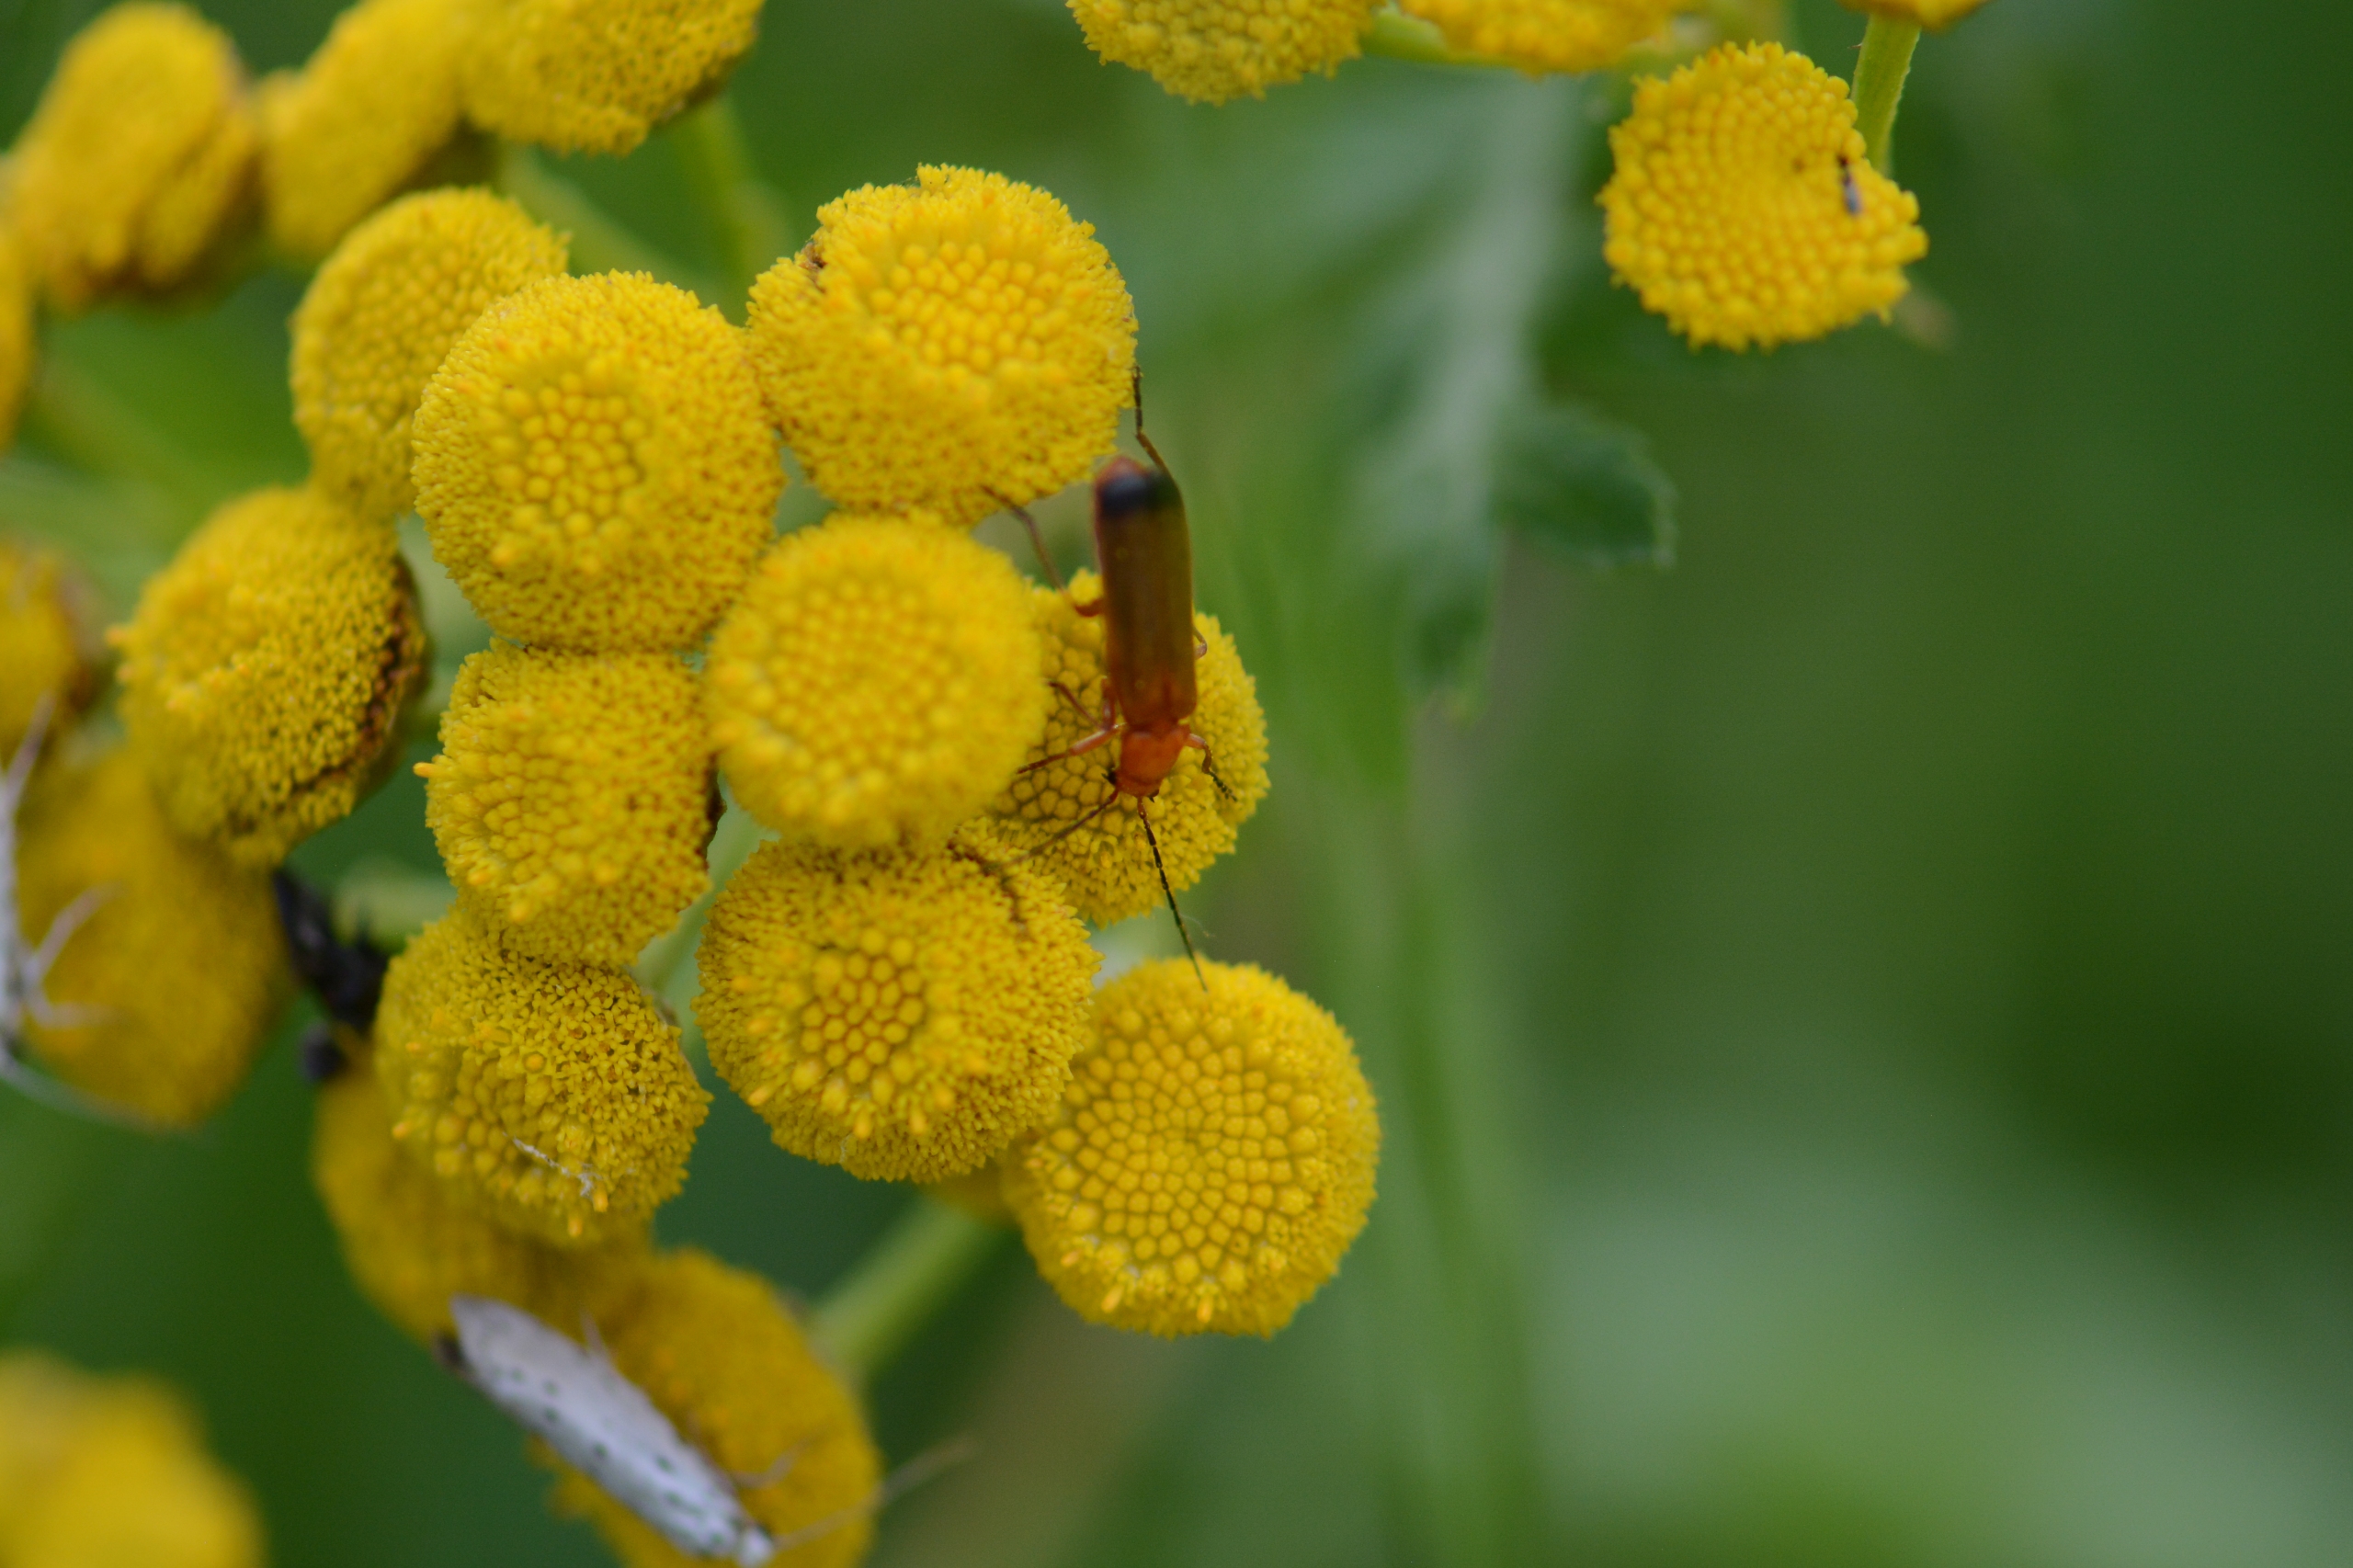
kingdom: Animalia
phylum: Arthropoda
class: Insecta
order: Coleoptera
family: Cantharidae
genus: Rhagonycha
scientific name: Rhagonycha fulva
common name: Præstebille
